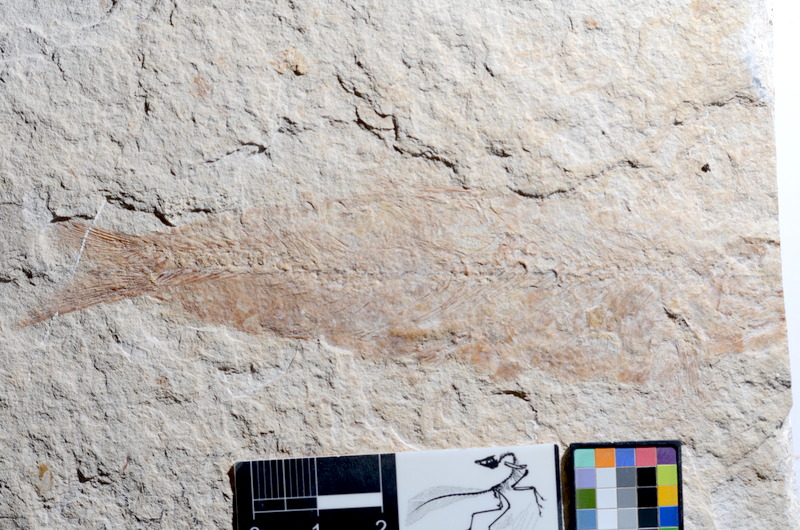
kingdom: Animalia
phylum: Chordata
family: Ascalaboidae
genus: Tharsis
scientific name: Tharsis dubius
